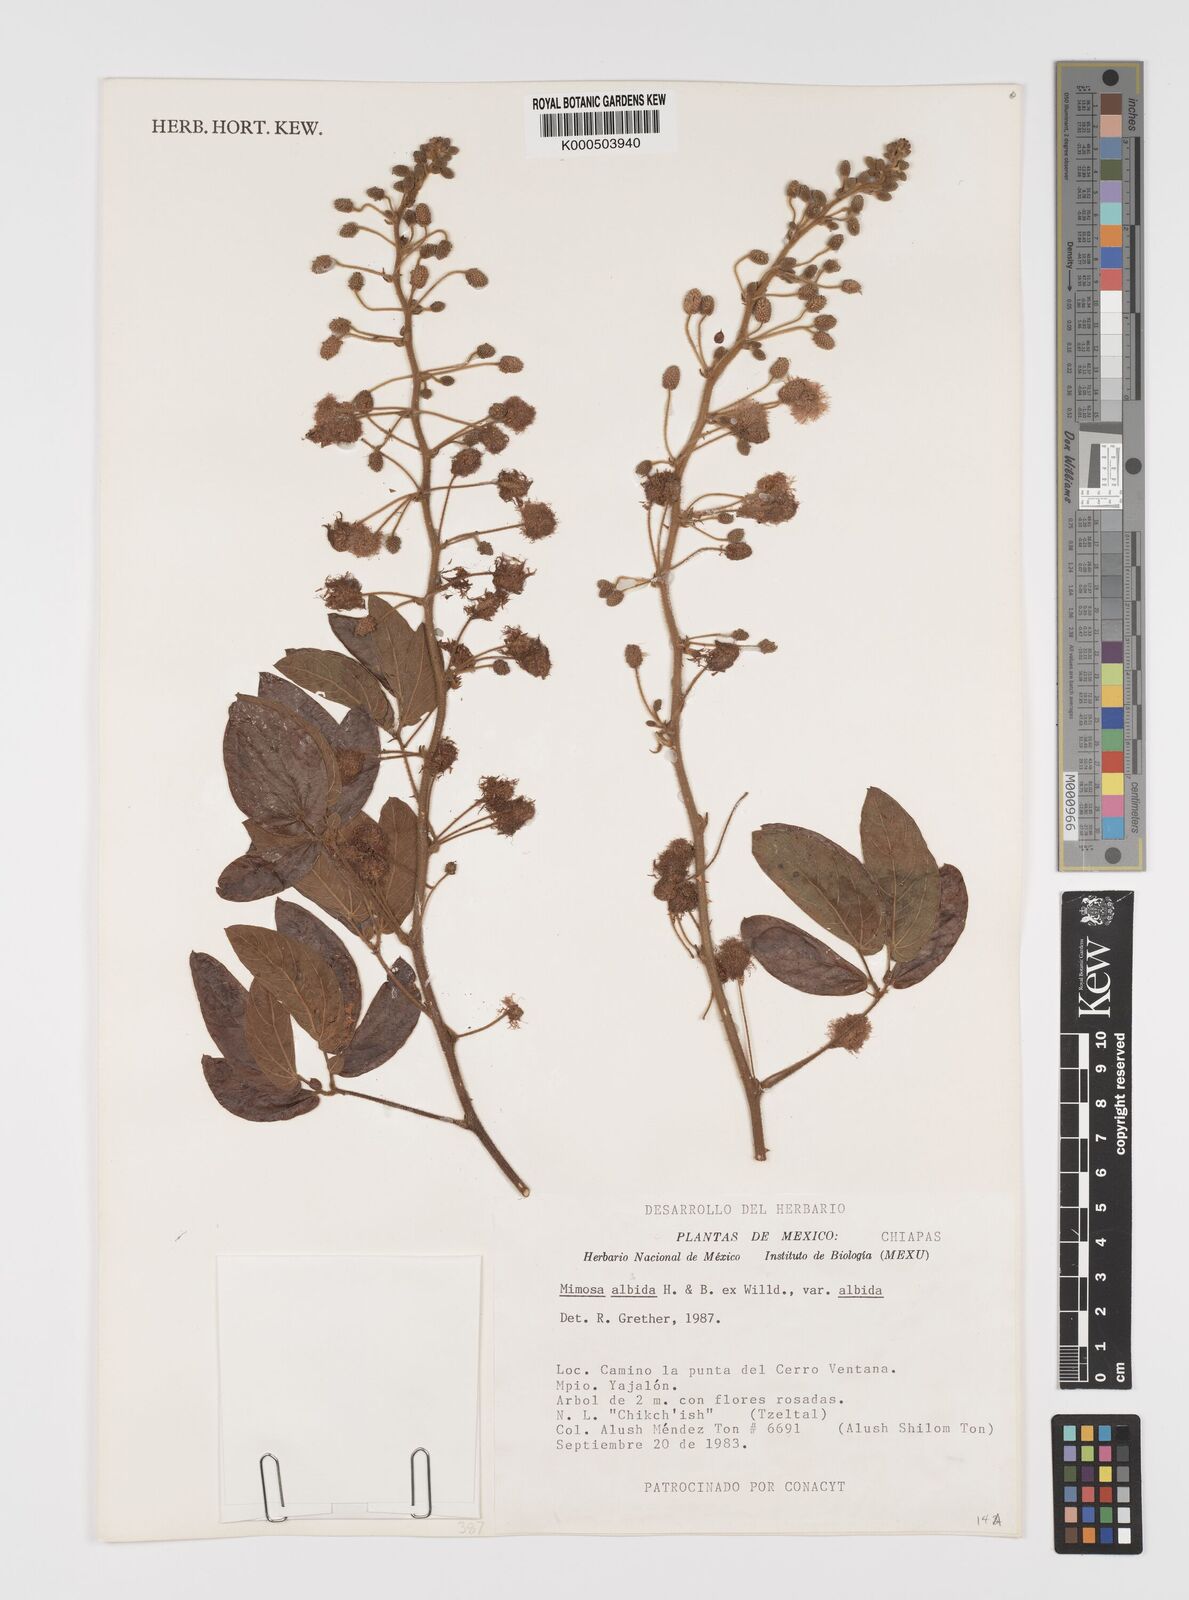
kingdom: Plantae
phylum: Tracheophyta
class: Magnoliopsida
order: Fabales
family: Fabaceae
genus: Mimosa
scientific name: Mimosa albida
